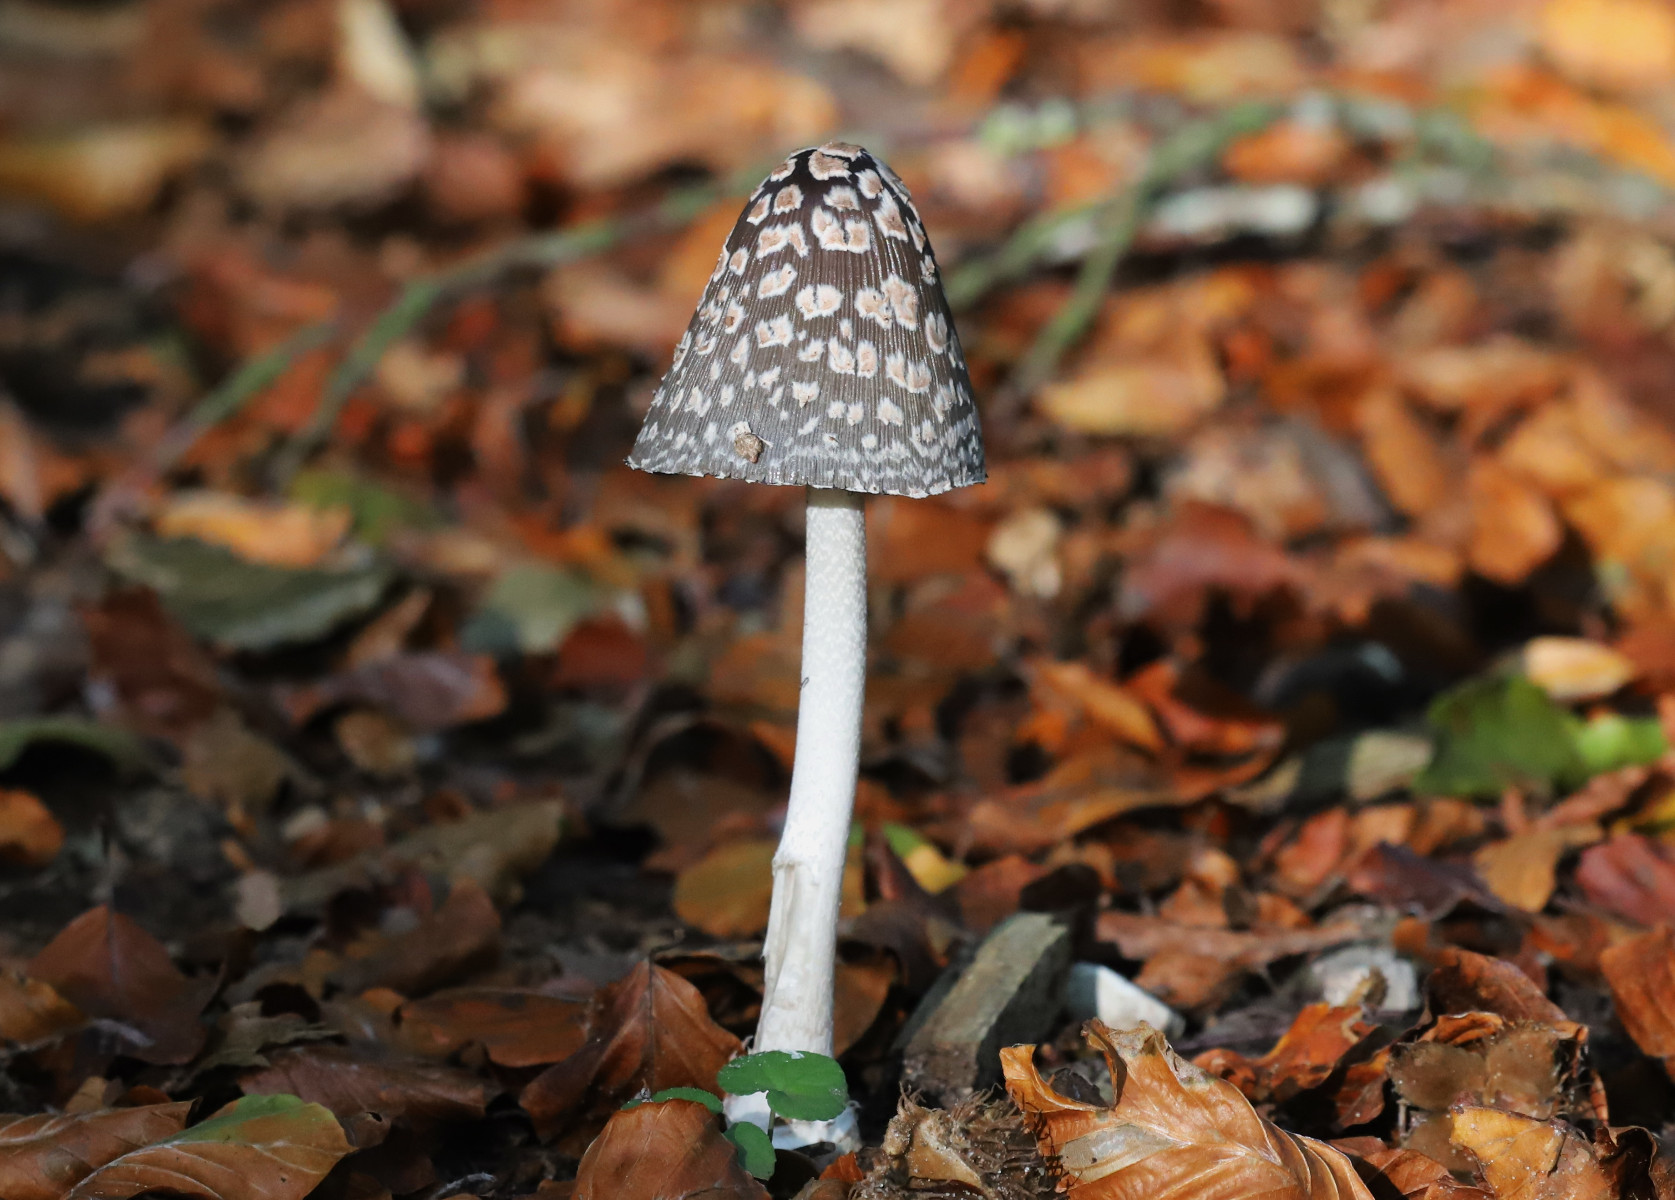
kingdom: Fungi
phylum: Basidiomycota
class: Agaricomycetes
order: Agaricales
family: Psathyrellaceae
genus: Coprinopsis
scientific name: Coprinopsis picacea
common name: skade-blækhat
